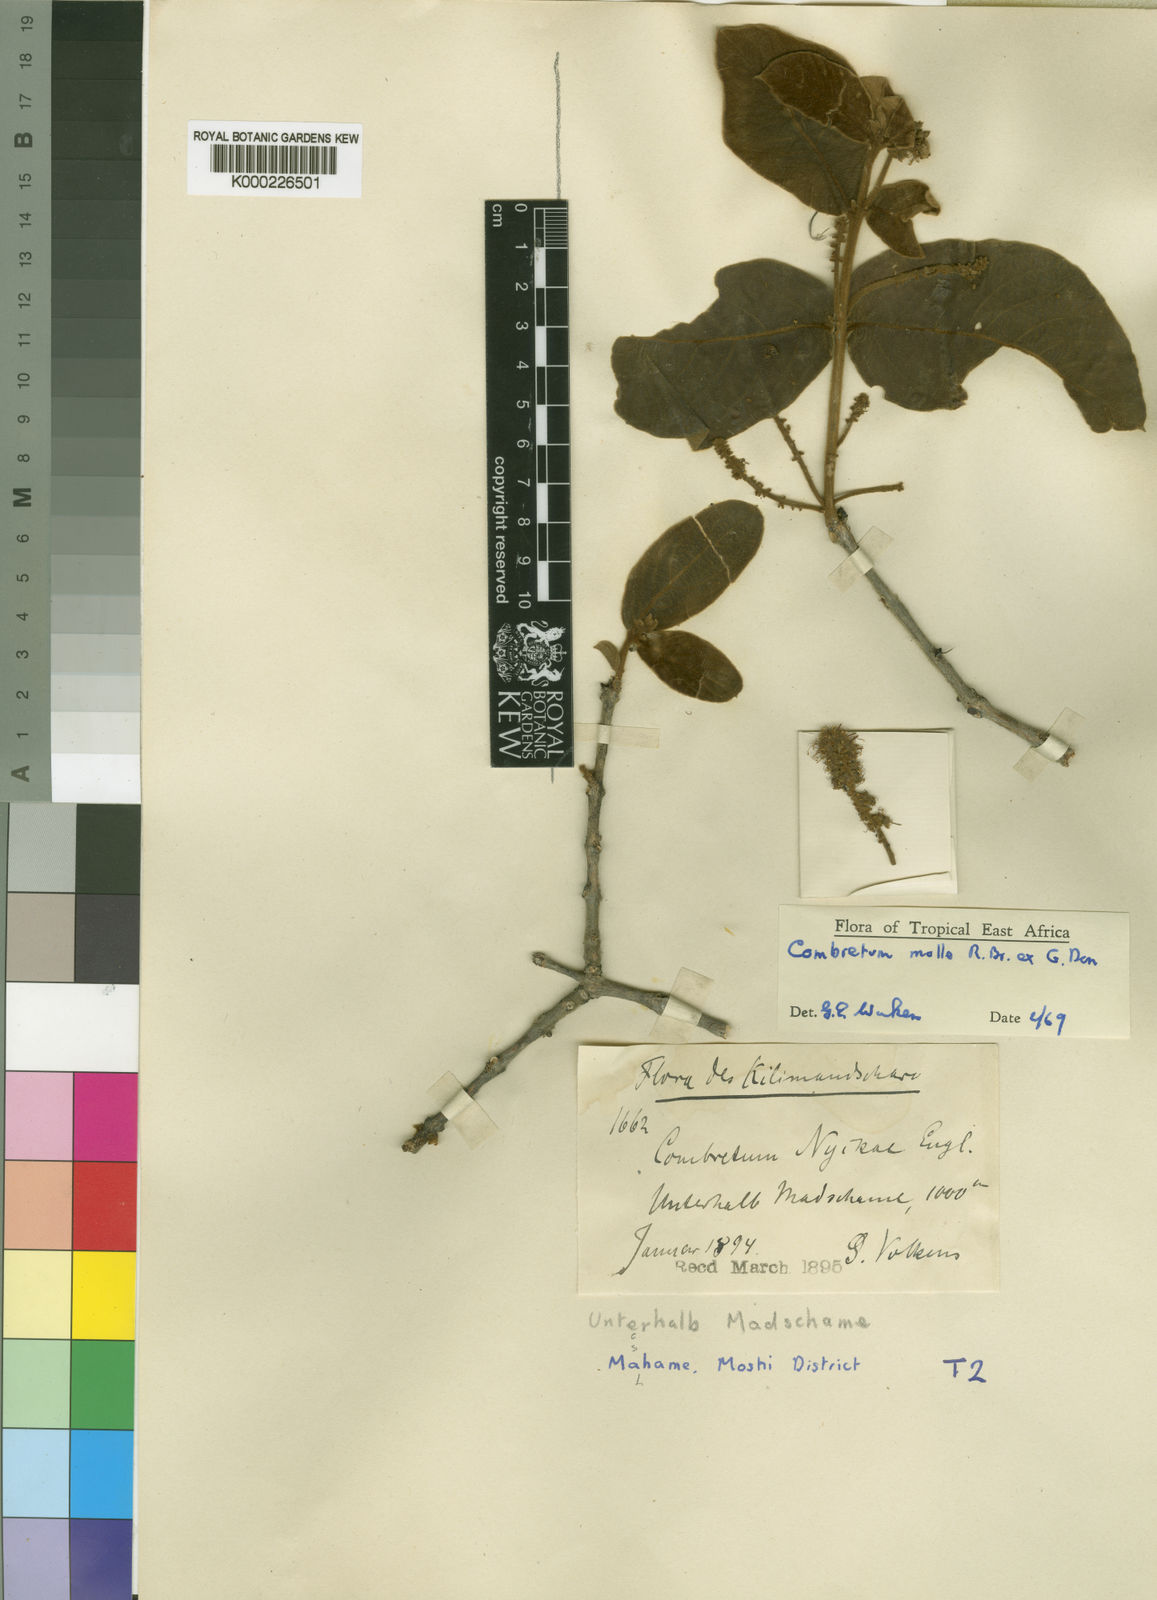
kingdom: Plantae
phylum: Tracheophyta
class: Magnoliopsida
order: Myrtales
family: Combretaceae
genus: Combretum
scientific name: Combretum molle
